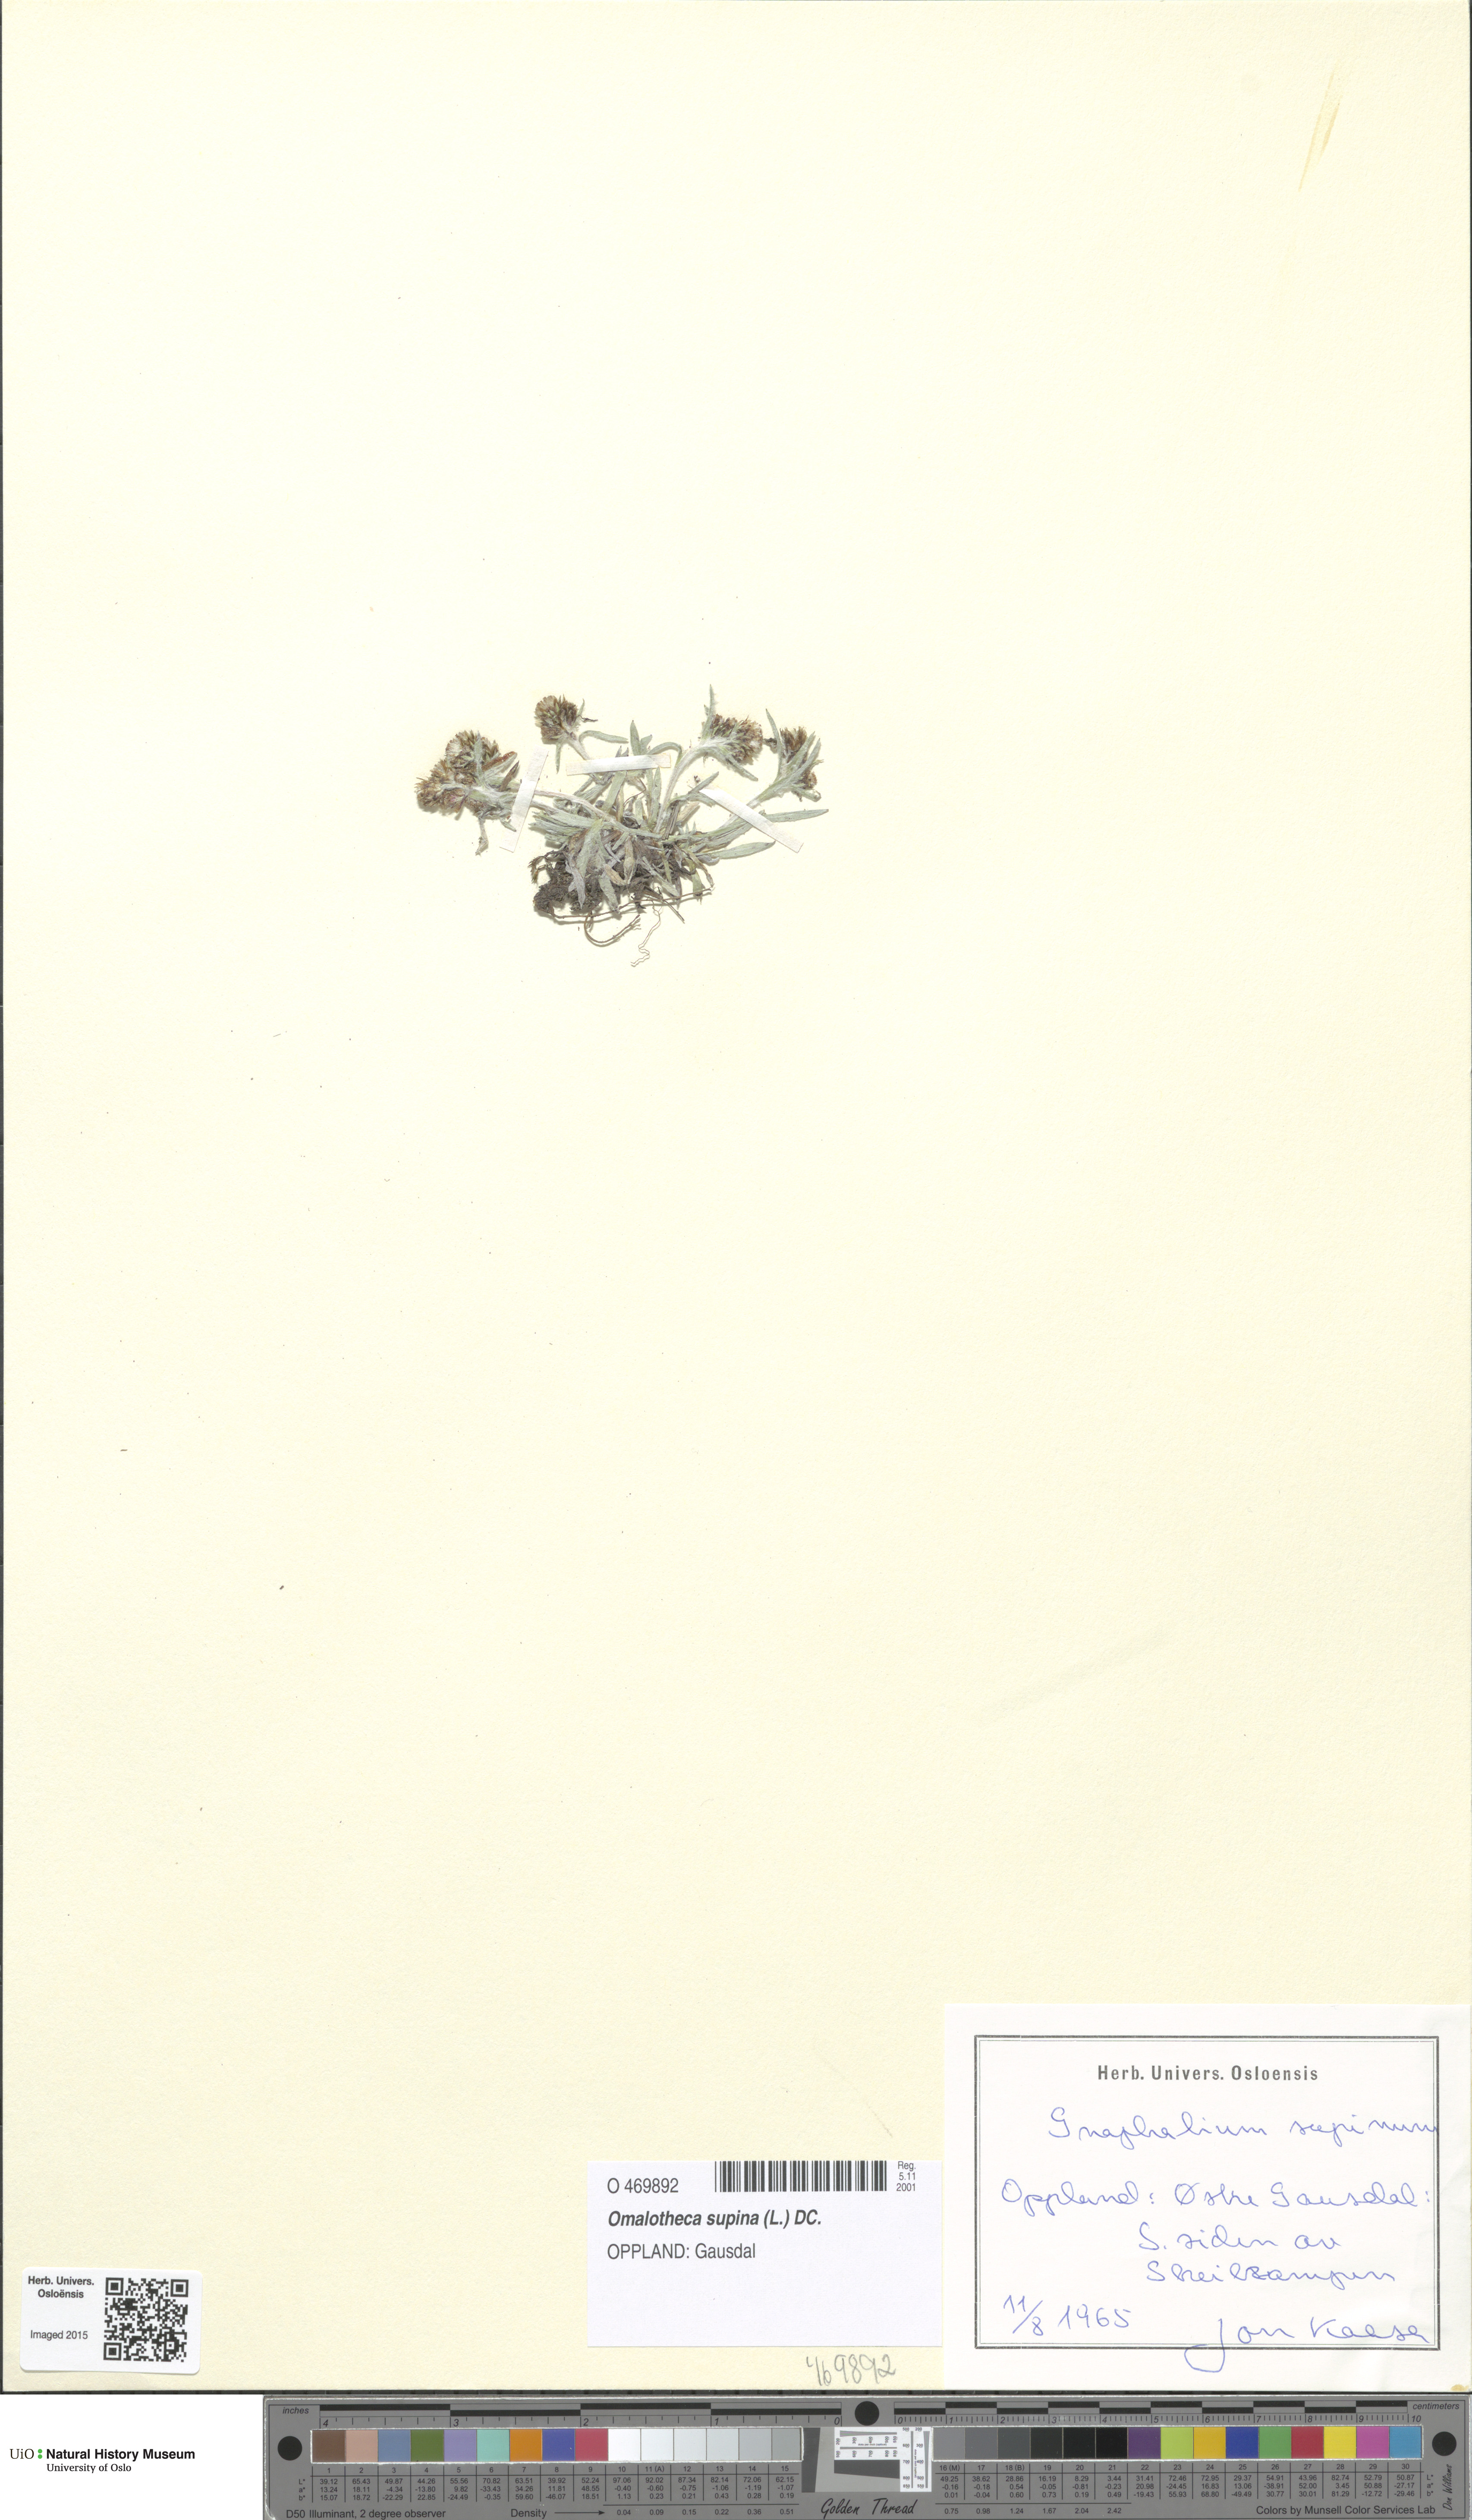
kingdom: Plantae
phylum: Tracheophyta
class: Magnoliopsida
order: Asterales
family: Asteraceae
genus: Omalotheca
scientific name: Omalotheca supina
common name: Alpine arctic-cudweed
